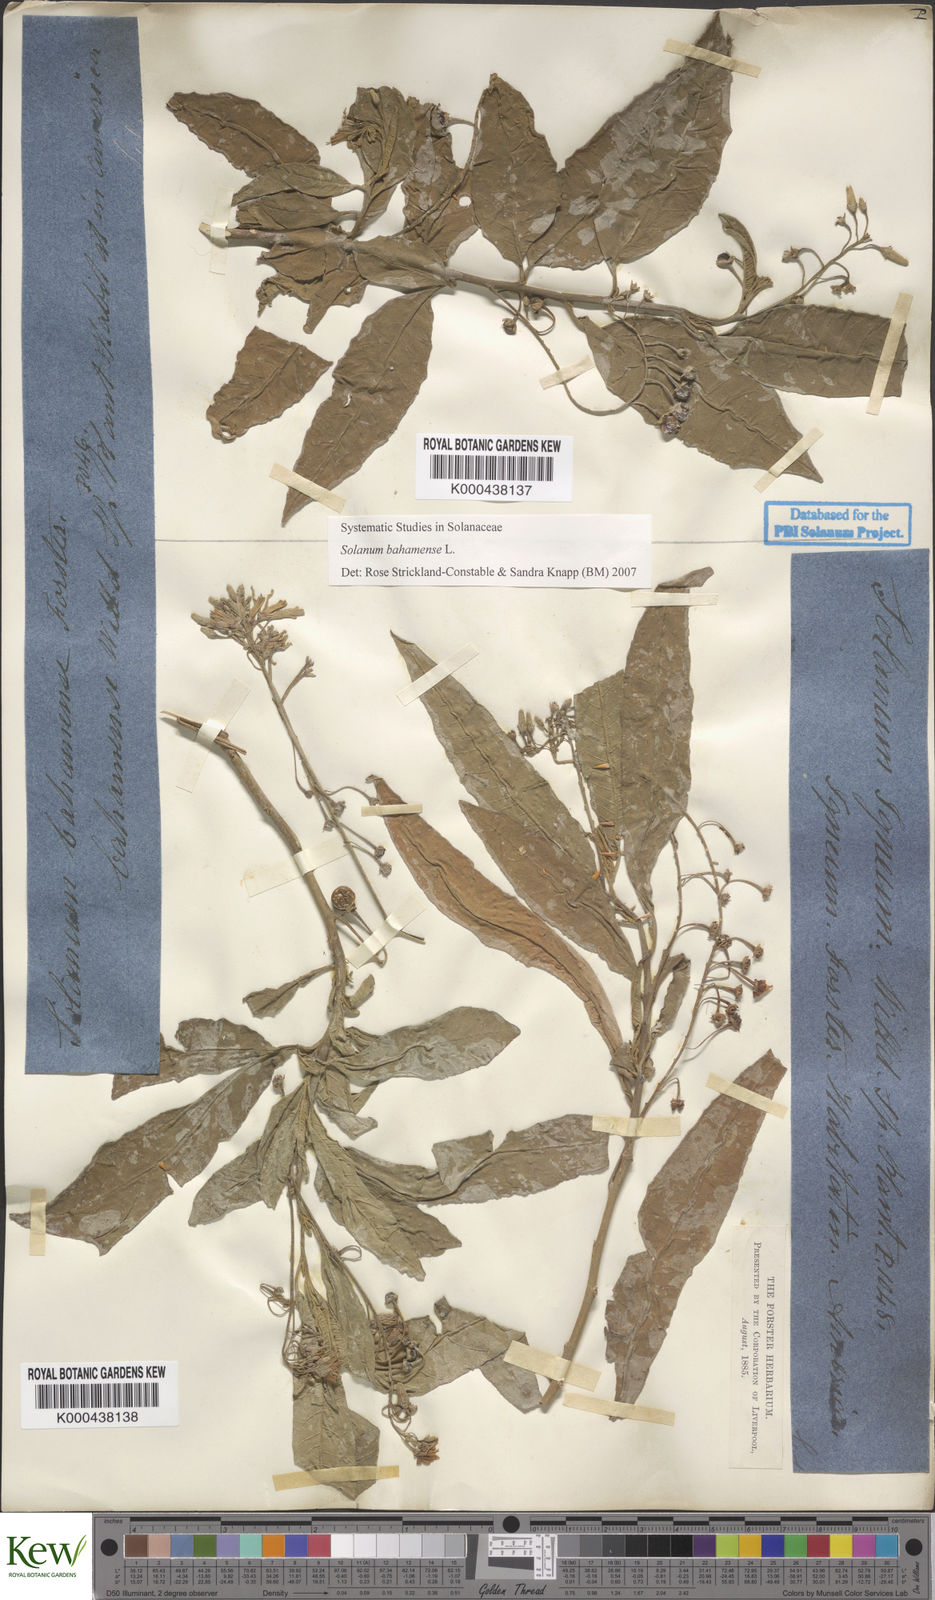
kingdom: Plantae
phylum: Tracheophyta
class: Magnoliopsida
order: Solanales
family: Solanaceae
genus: Solanum
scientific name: Solanum bahamense
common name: Canker-berry
